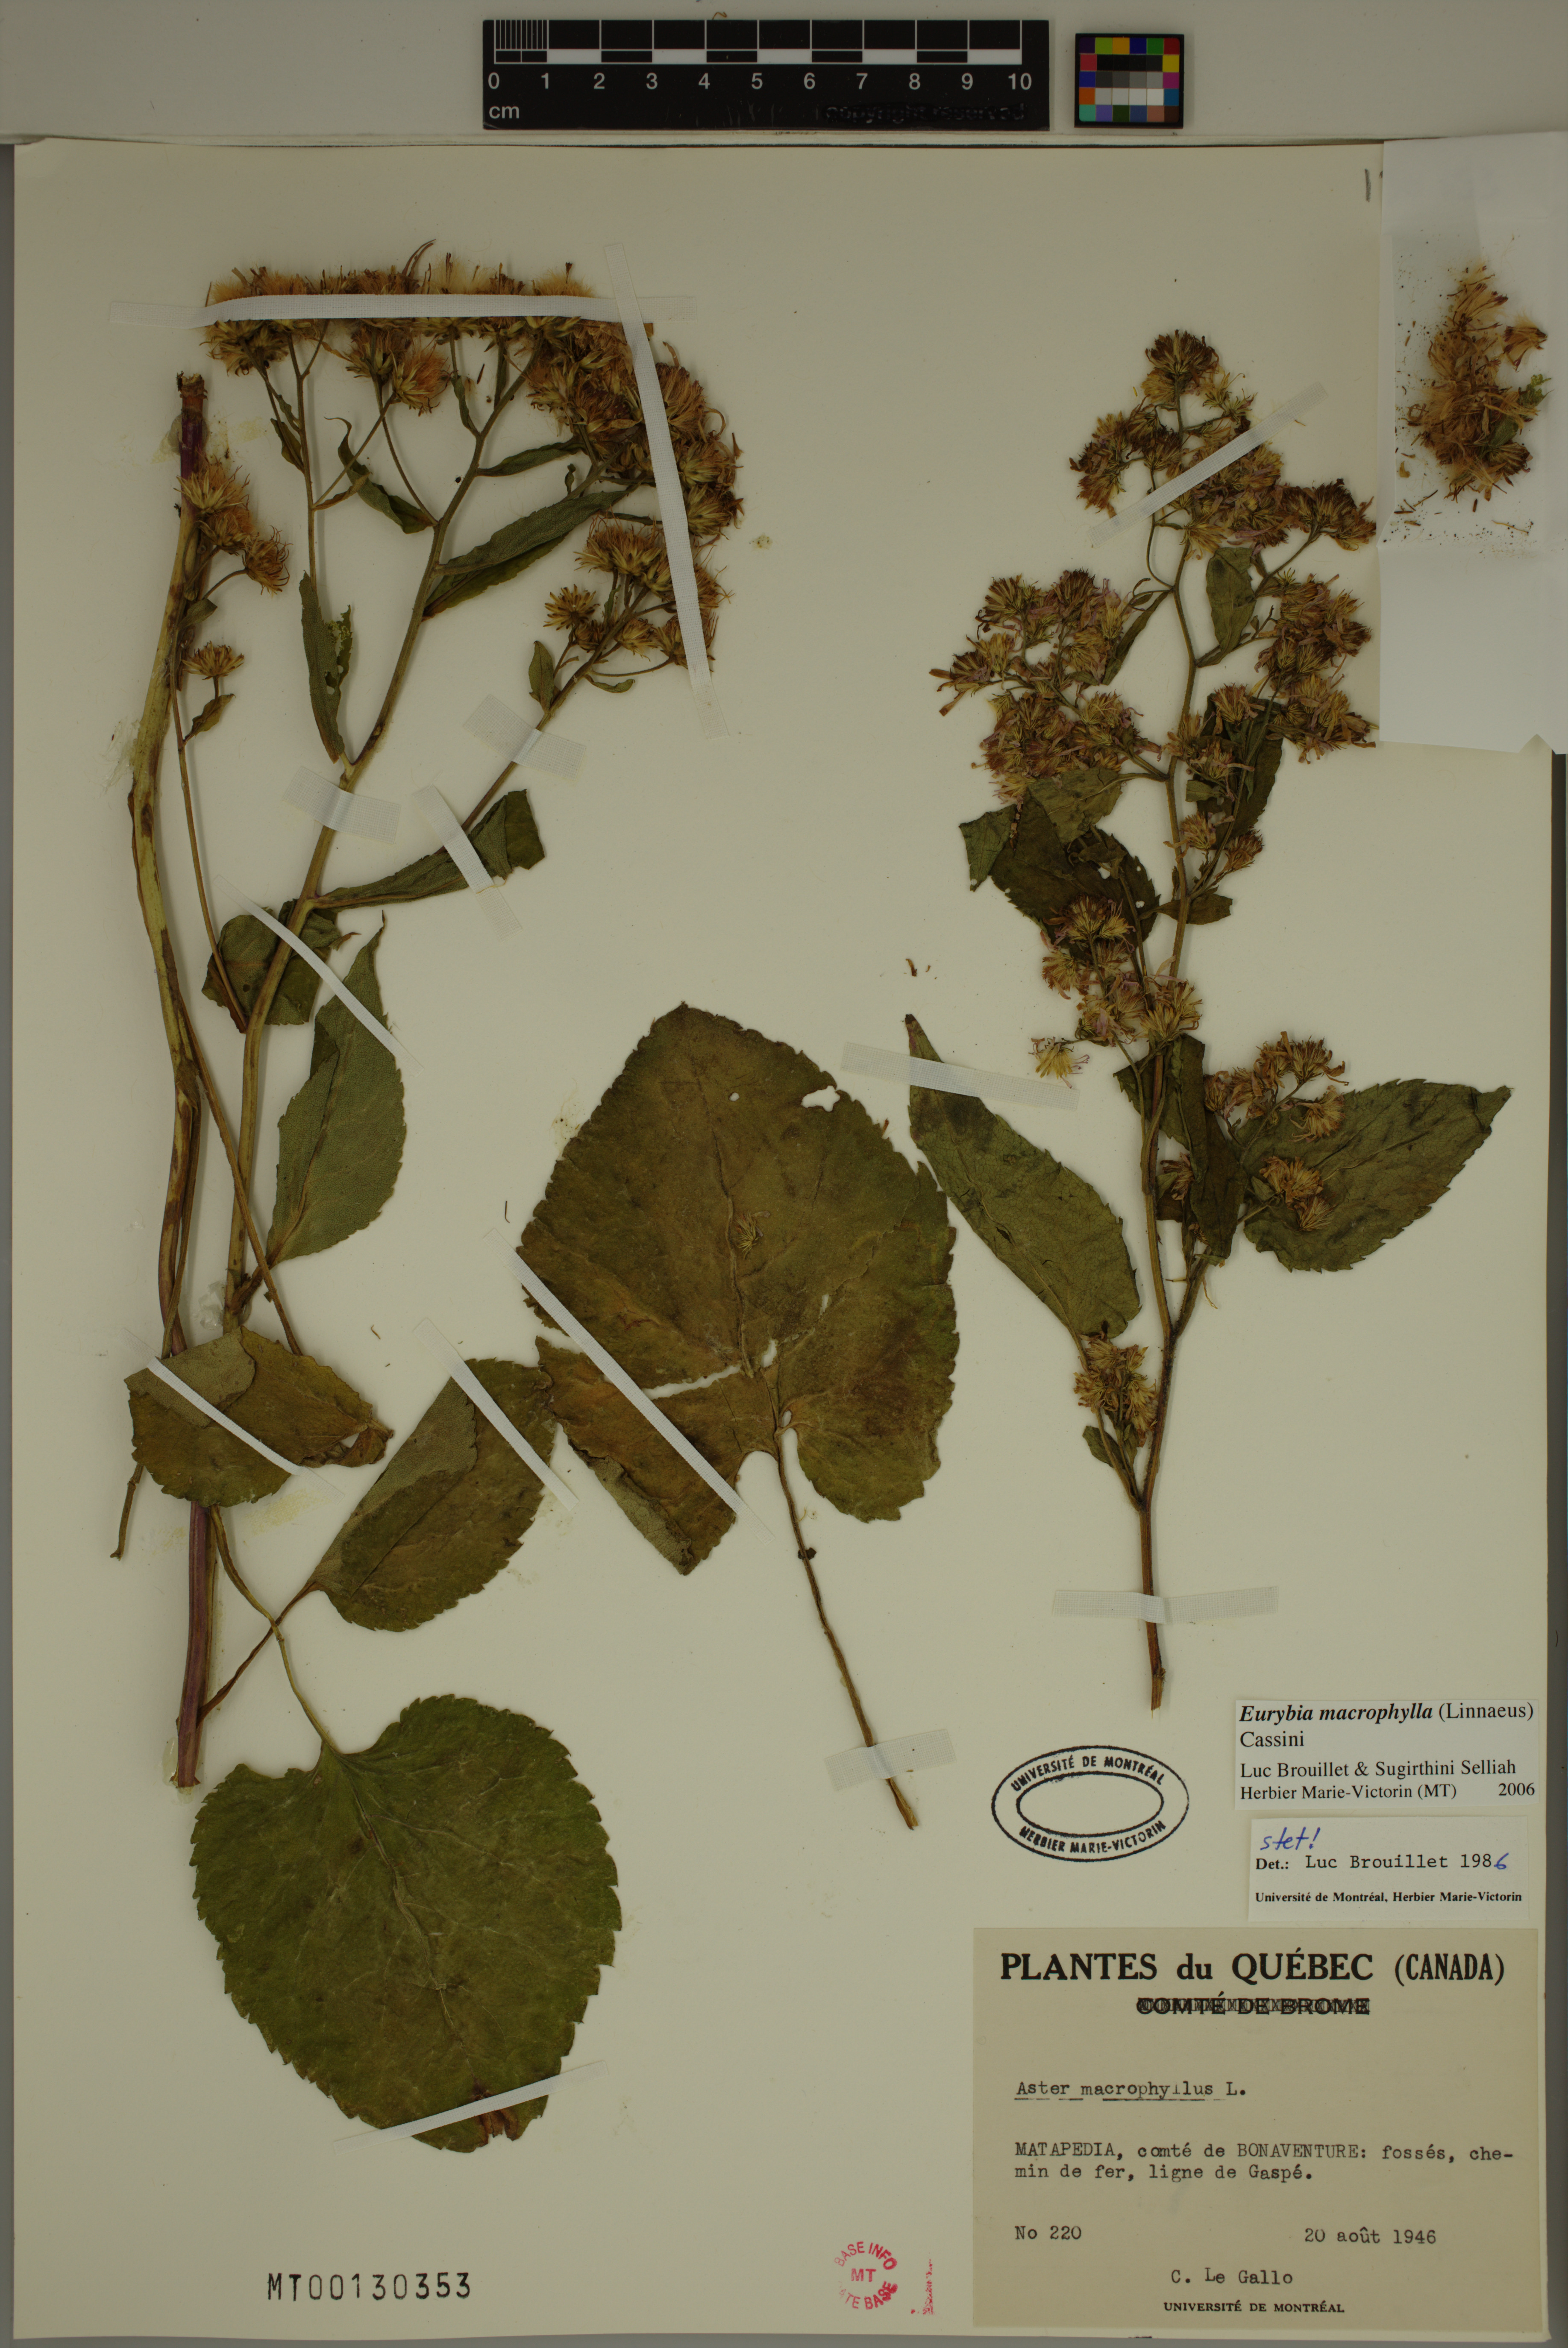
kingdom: Plantae
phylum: Tracheophyta
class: Magnoliopsida
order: Asterales
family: Asteraceae
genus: Eurybia
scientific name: Eurybia macrophylla
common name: Big-leaved aster
